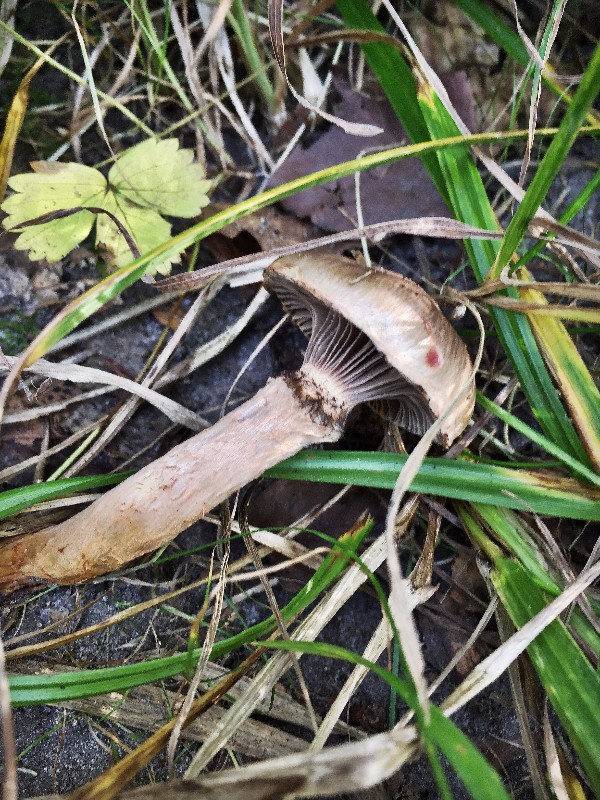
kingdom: Fungi
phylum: Basidiomycota
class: Agaricomycetes
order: Boletales
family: Gomphidiaceae
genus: Gomphidius
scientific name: Gomphidius maculatus
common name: rødmende slimslør
